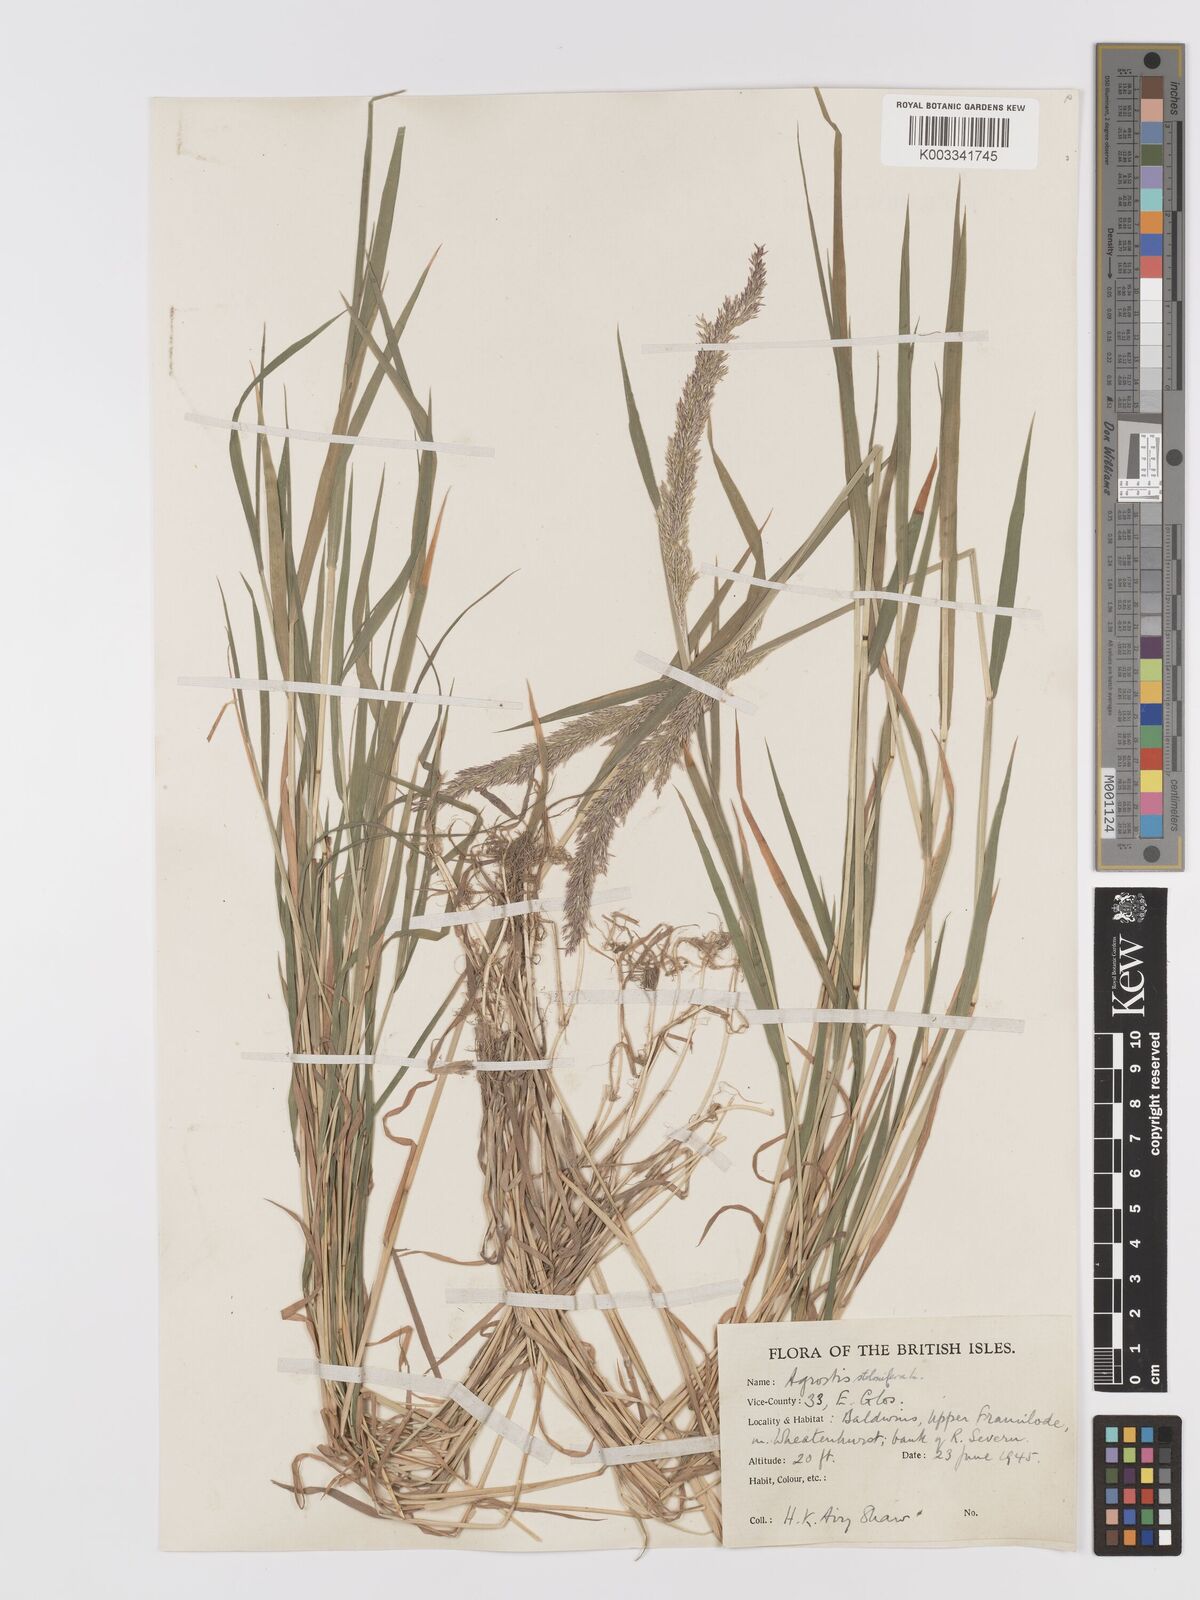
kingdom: Plantae
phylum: Tracheophyta
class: Liliopsida
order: Poales
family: Poaceae
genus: Agrostis
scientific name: Agrostis stolonifera
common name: Creeping bentgrass
